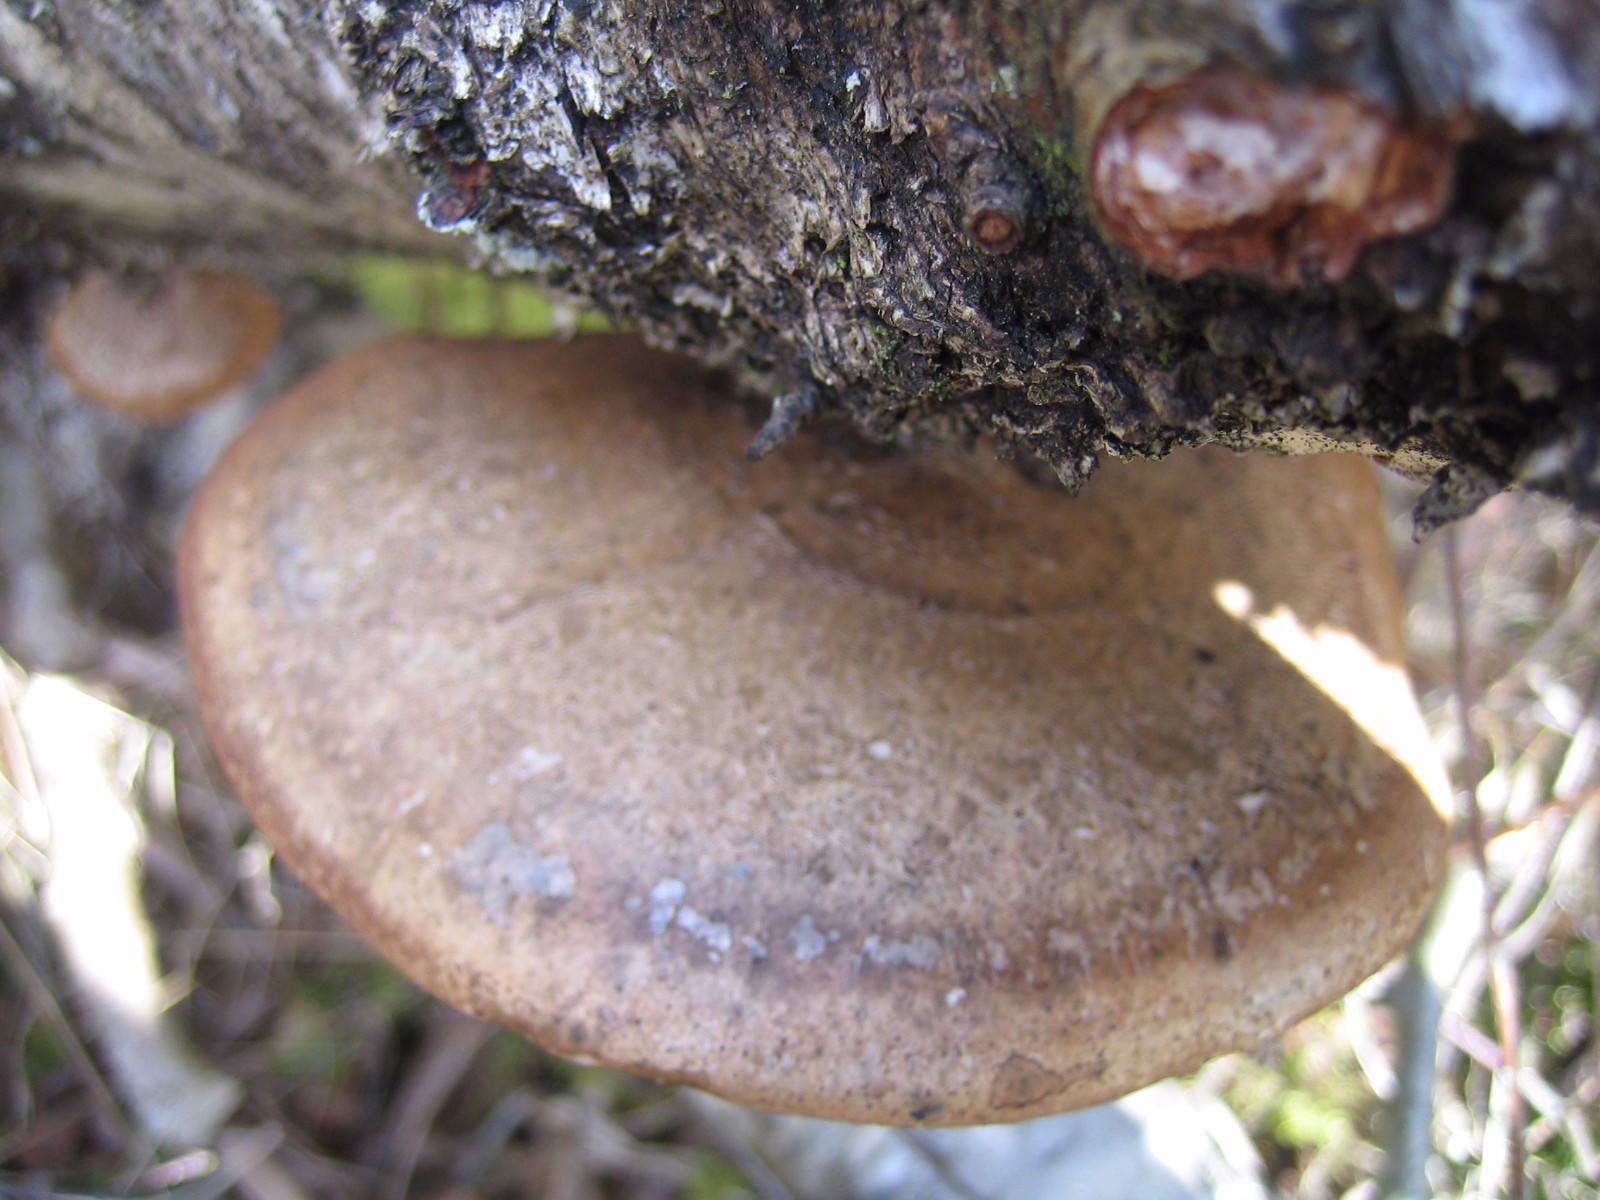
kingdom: Fungi
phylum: Basidiomycota
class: Agaricomycetes
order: Polyporales
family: Fomitopsidaceae
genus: Fomitopsis
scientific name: Fomitopsis betulina
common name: birkeporesvamp
